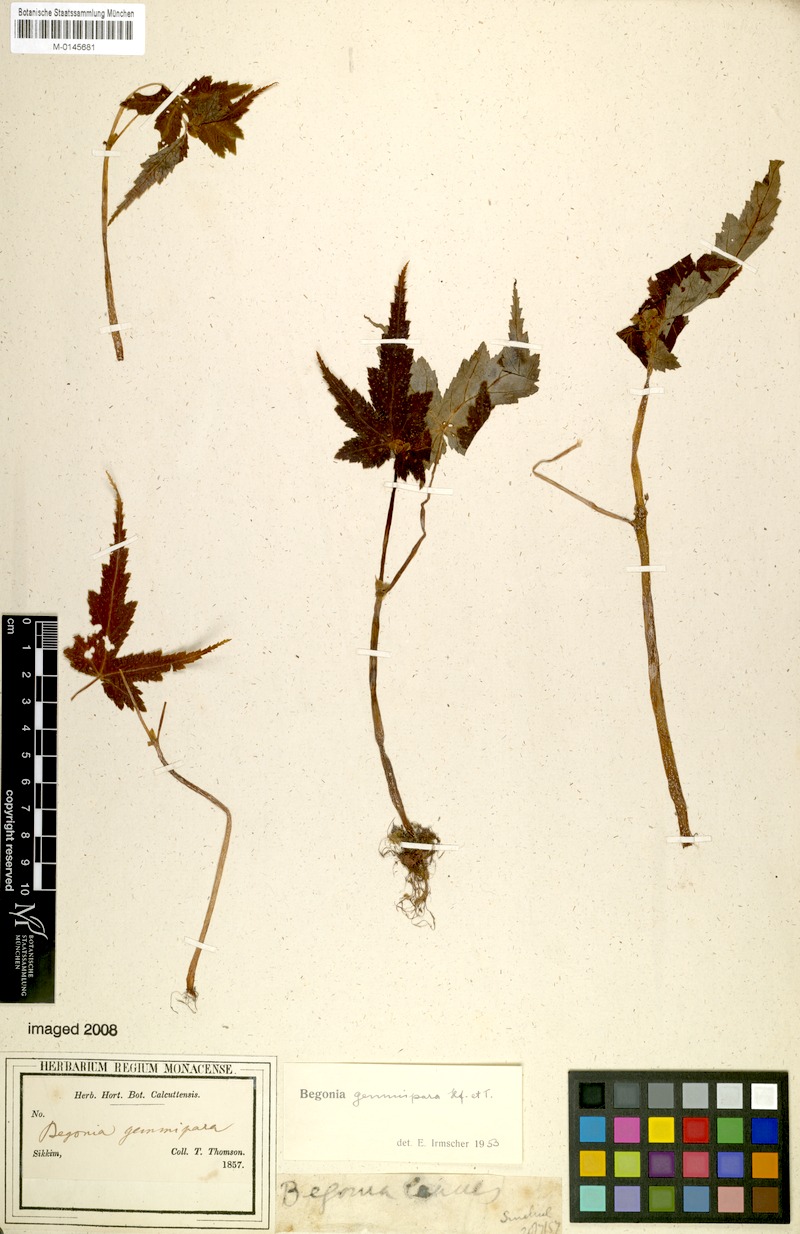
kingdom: Plantae
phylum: Tracheophyta
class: Magnoliopsida
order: Cucurbitales
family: Begoniaceae
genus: Begonia
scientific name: Begonia gemmipara
